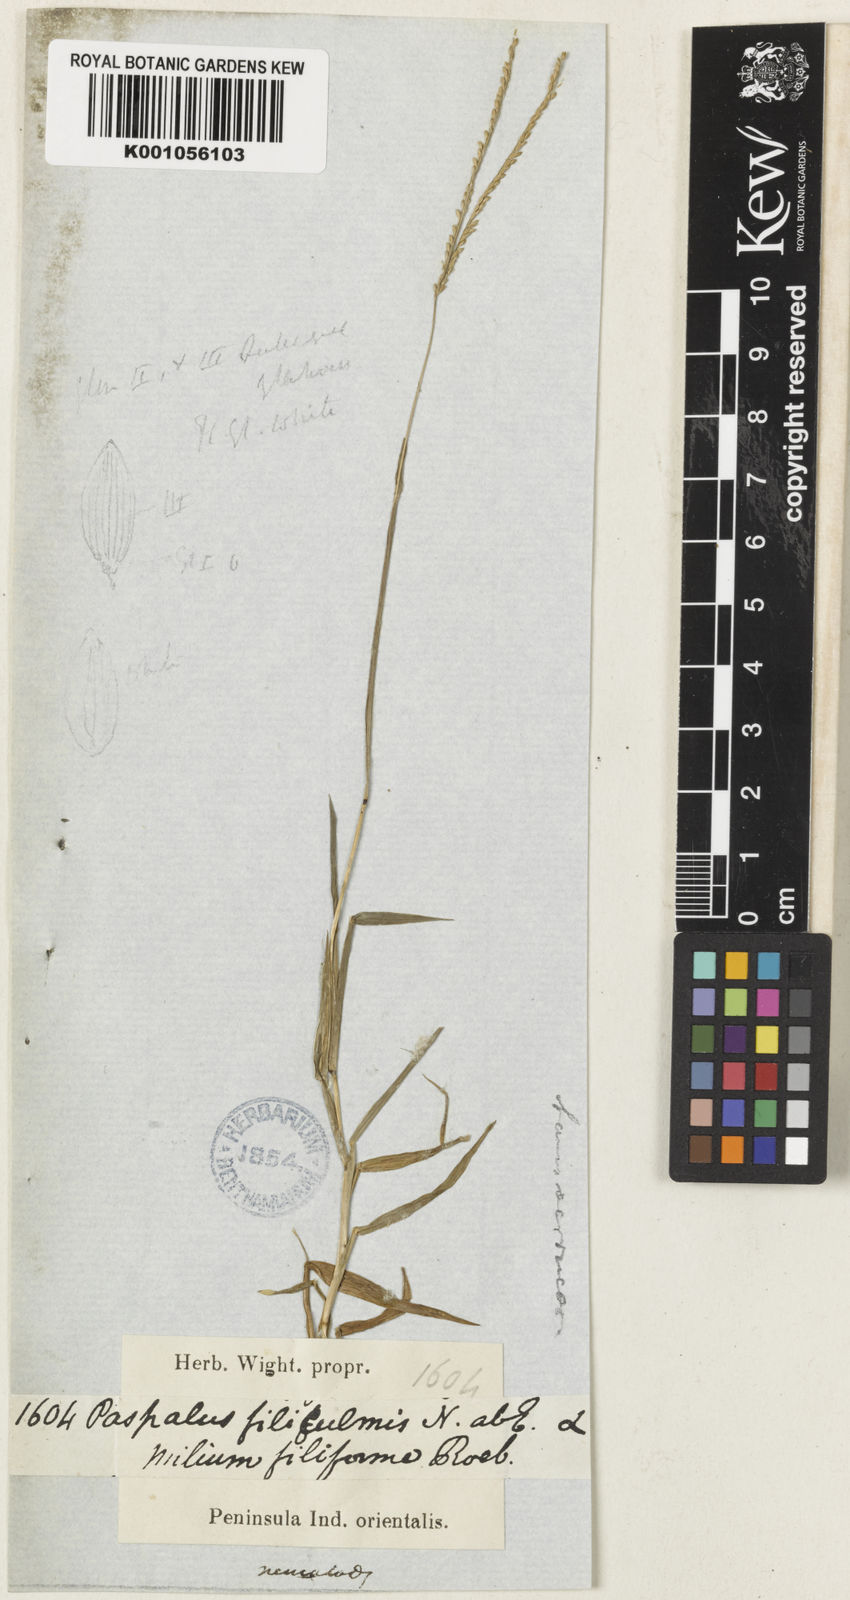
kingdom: Plantae
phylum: Tracheophyta
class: Liliopsida
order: Poales
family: Poaceae
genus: Digitaria
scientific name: Digitaria longiflora
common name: Wire crabgrass
